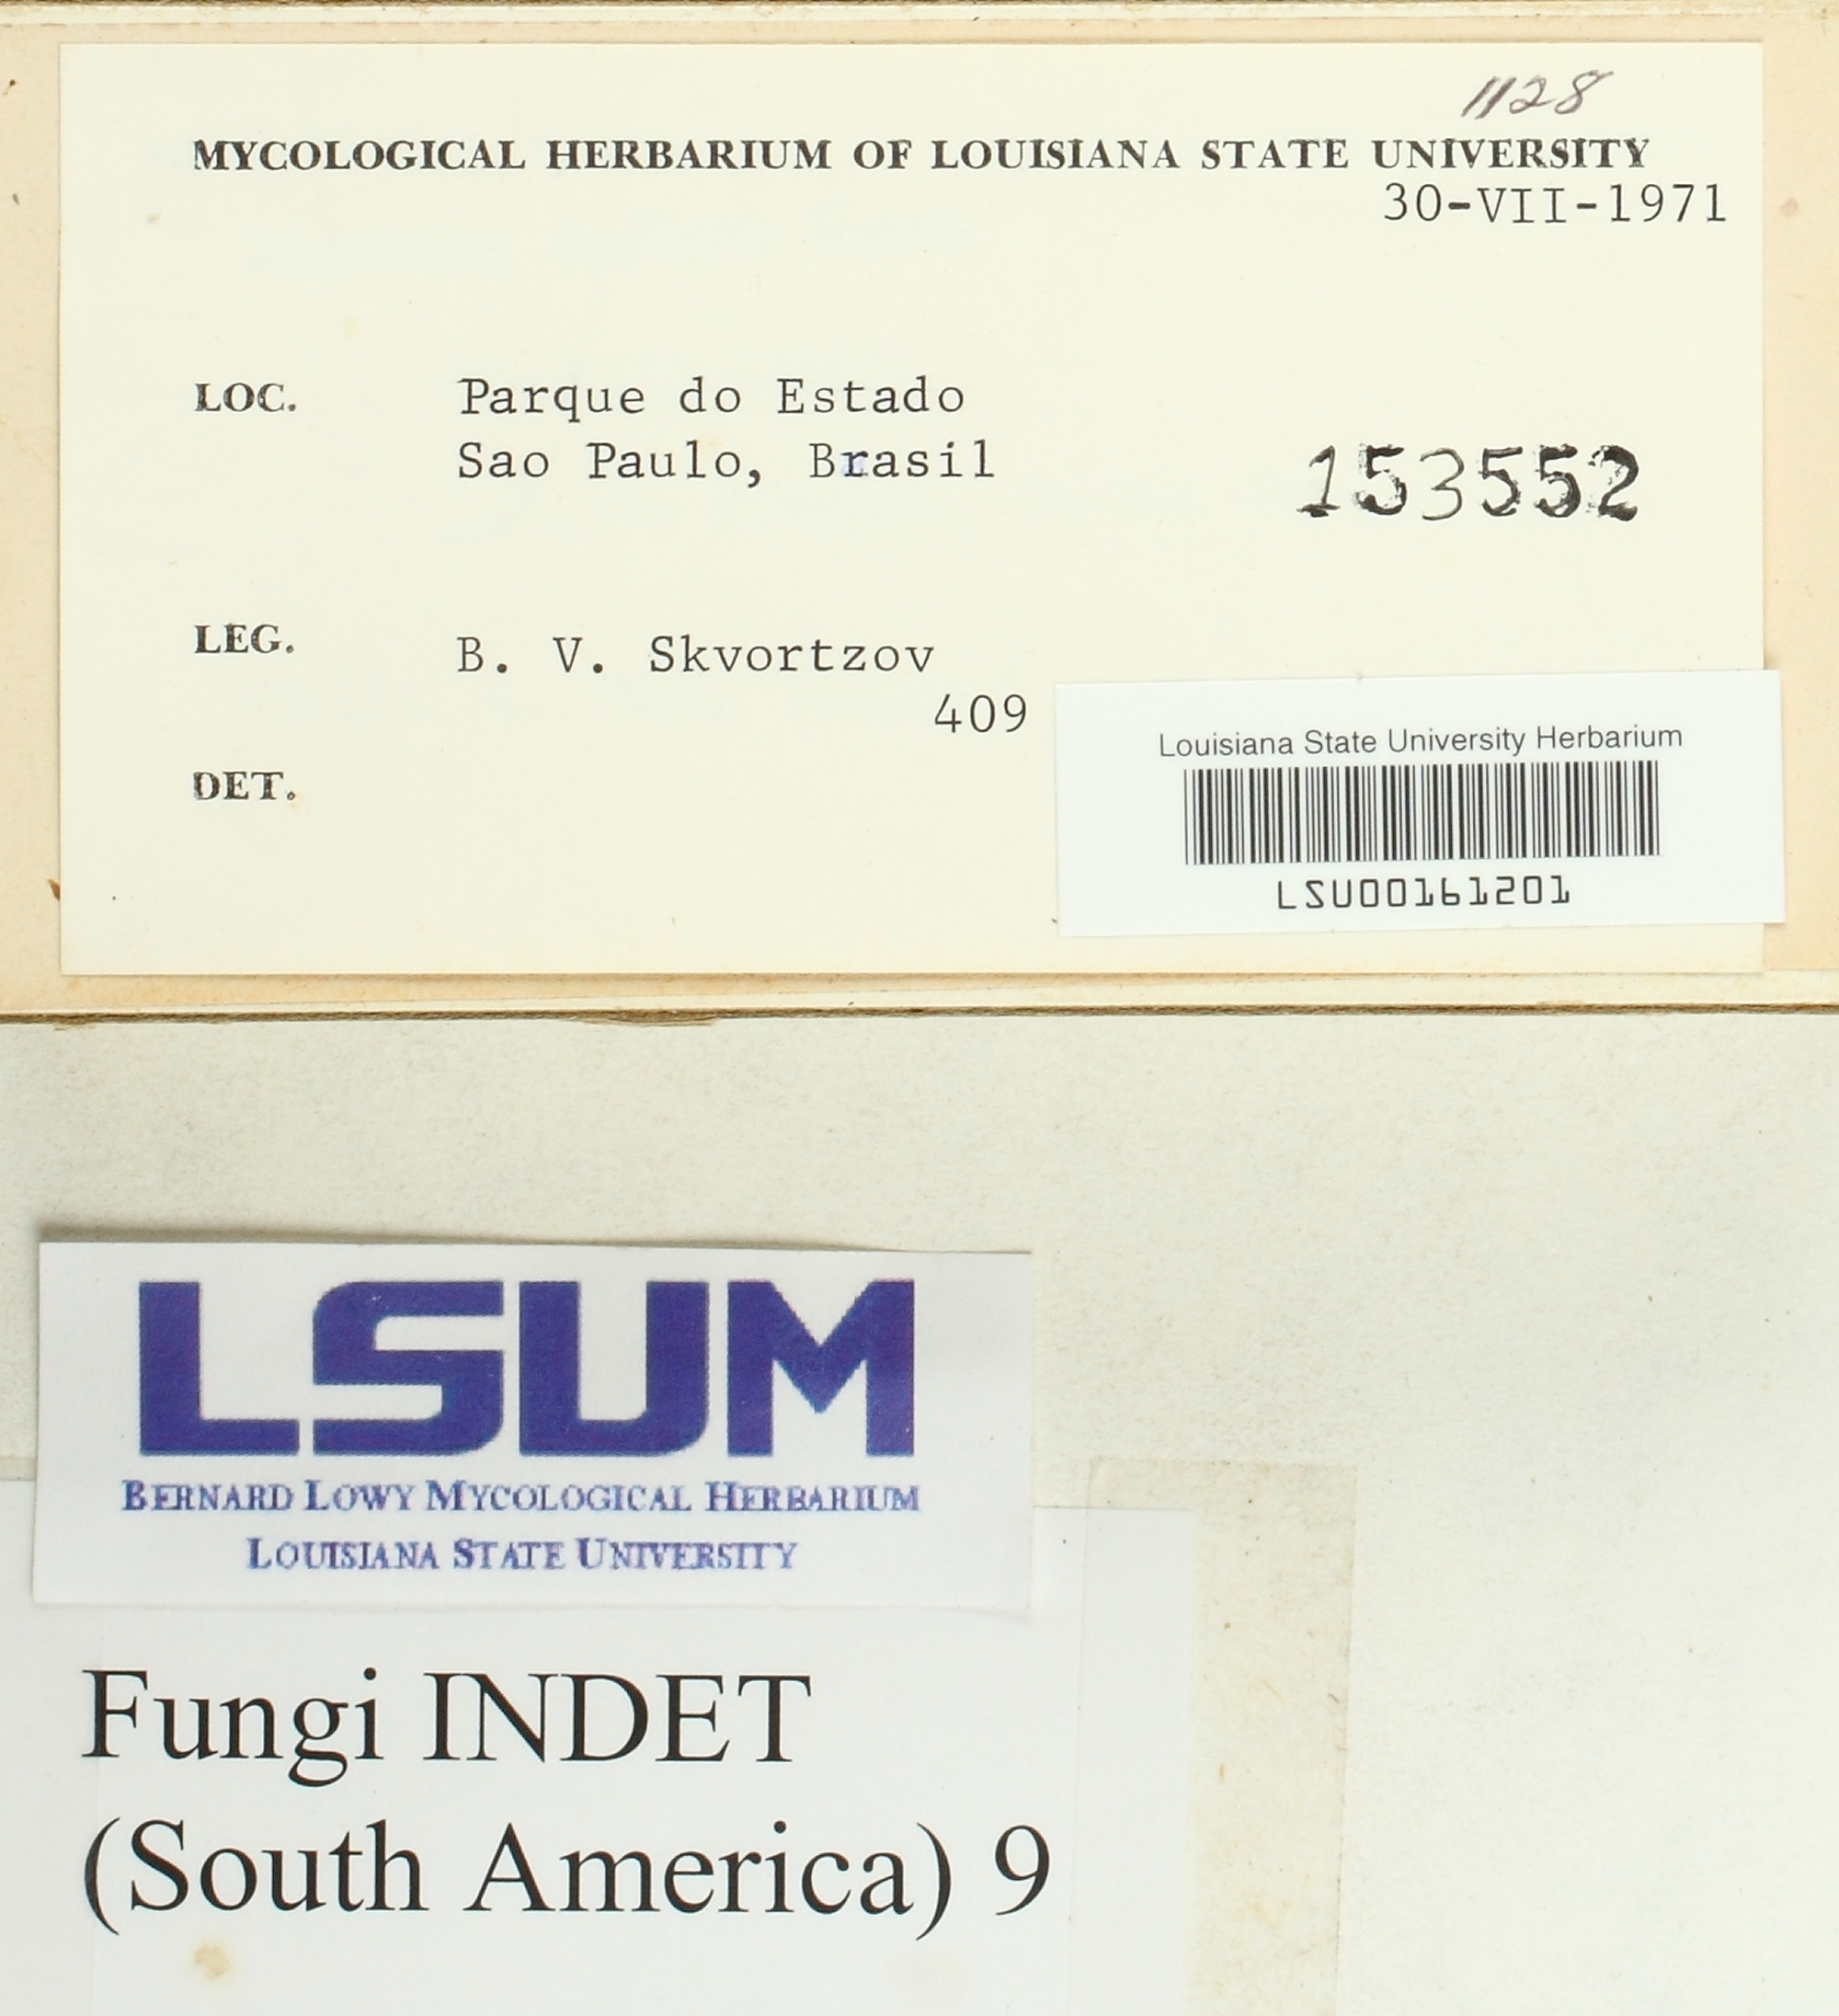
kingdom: Fungi
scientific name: Fungi
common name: Fungi
